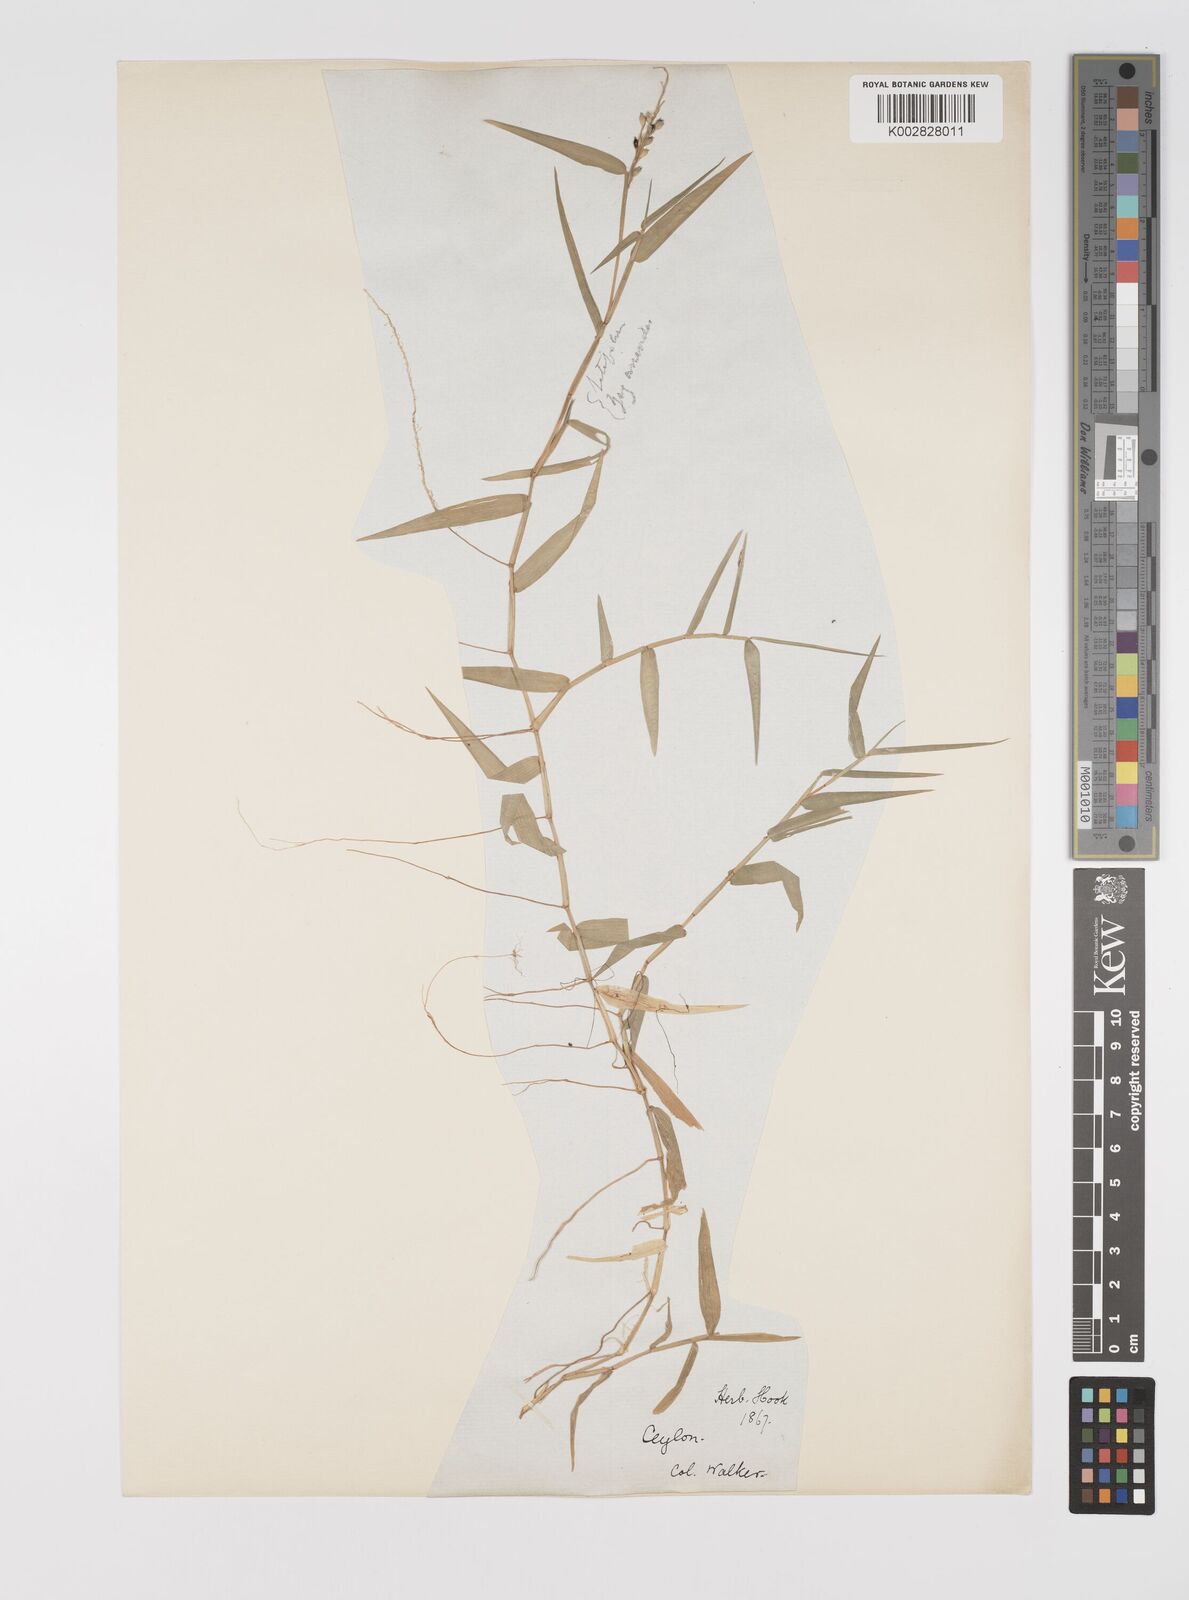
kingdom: Plantae
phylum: Tracheophyta
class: Liliopsida
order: Poales
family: Poaceae
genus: Acroceras
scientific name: Acroceras munroanum
